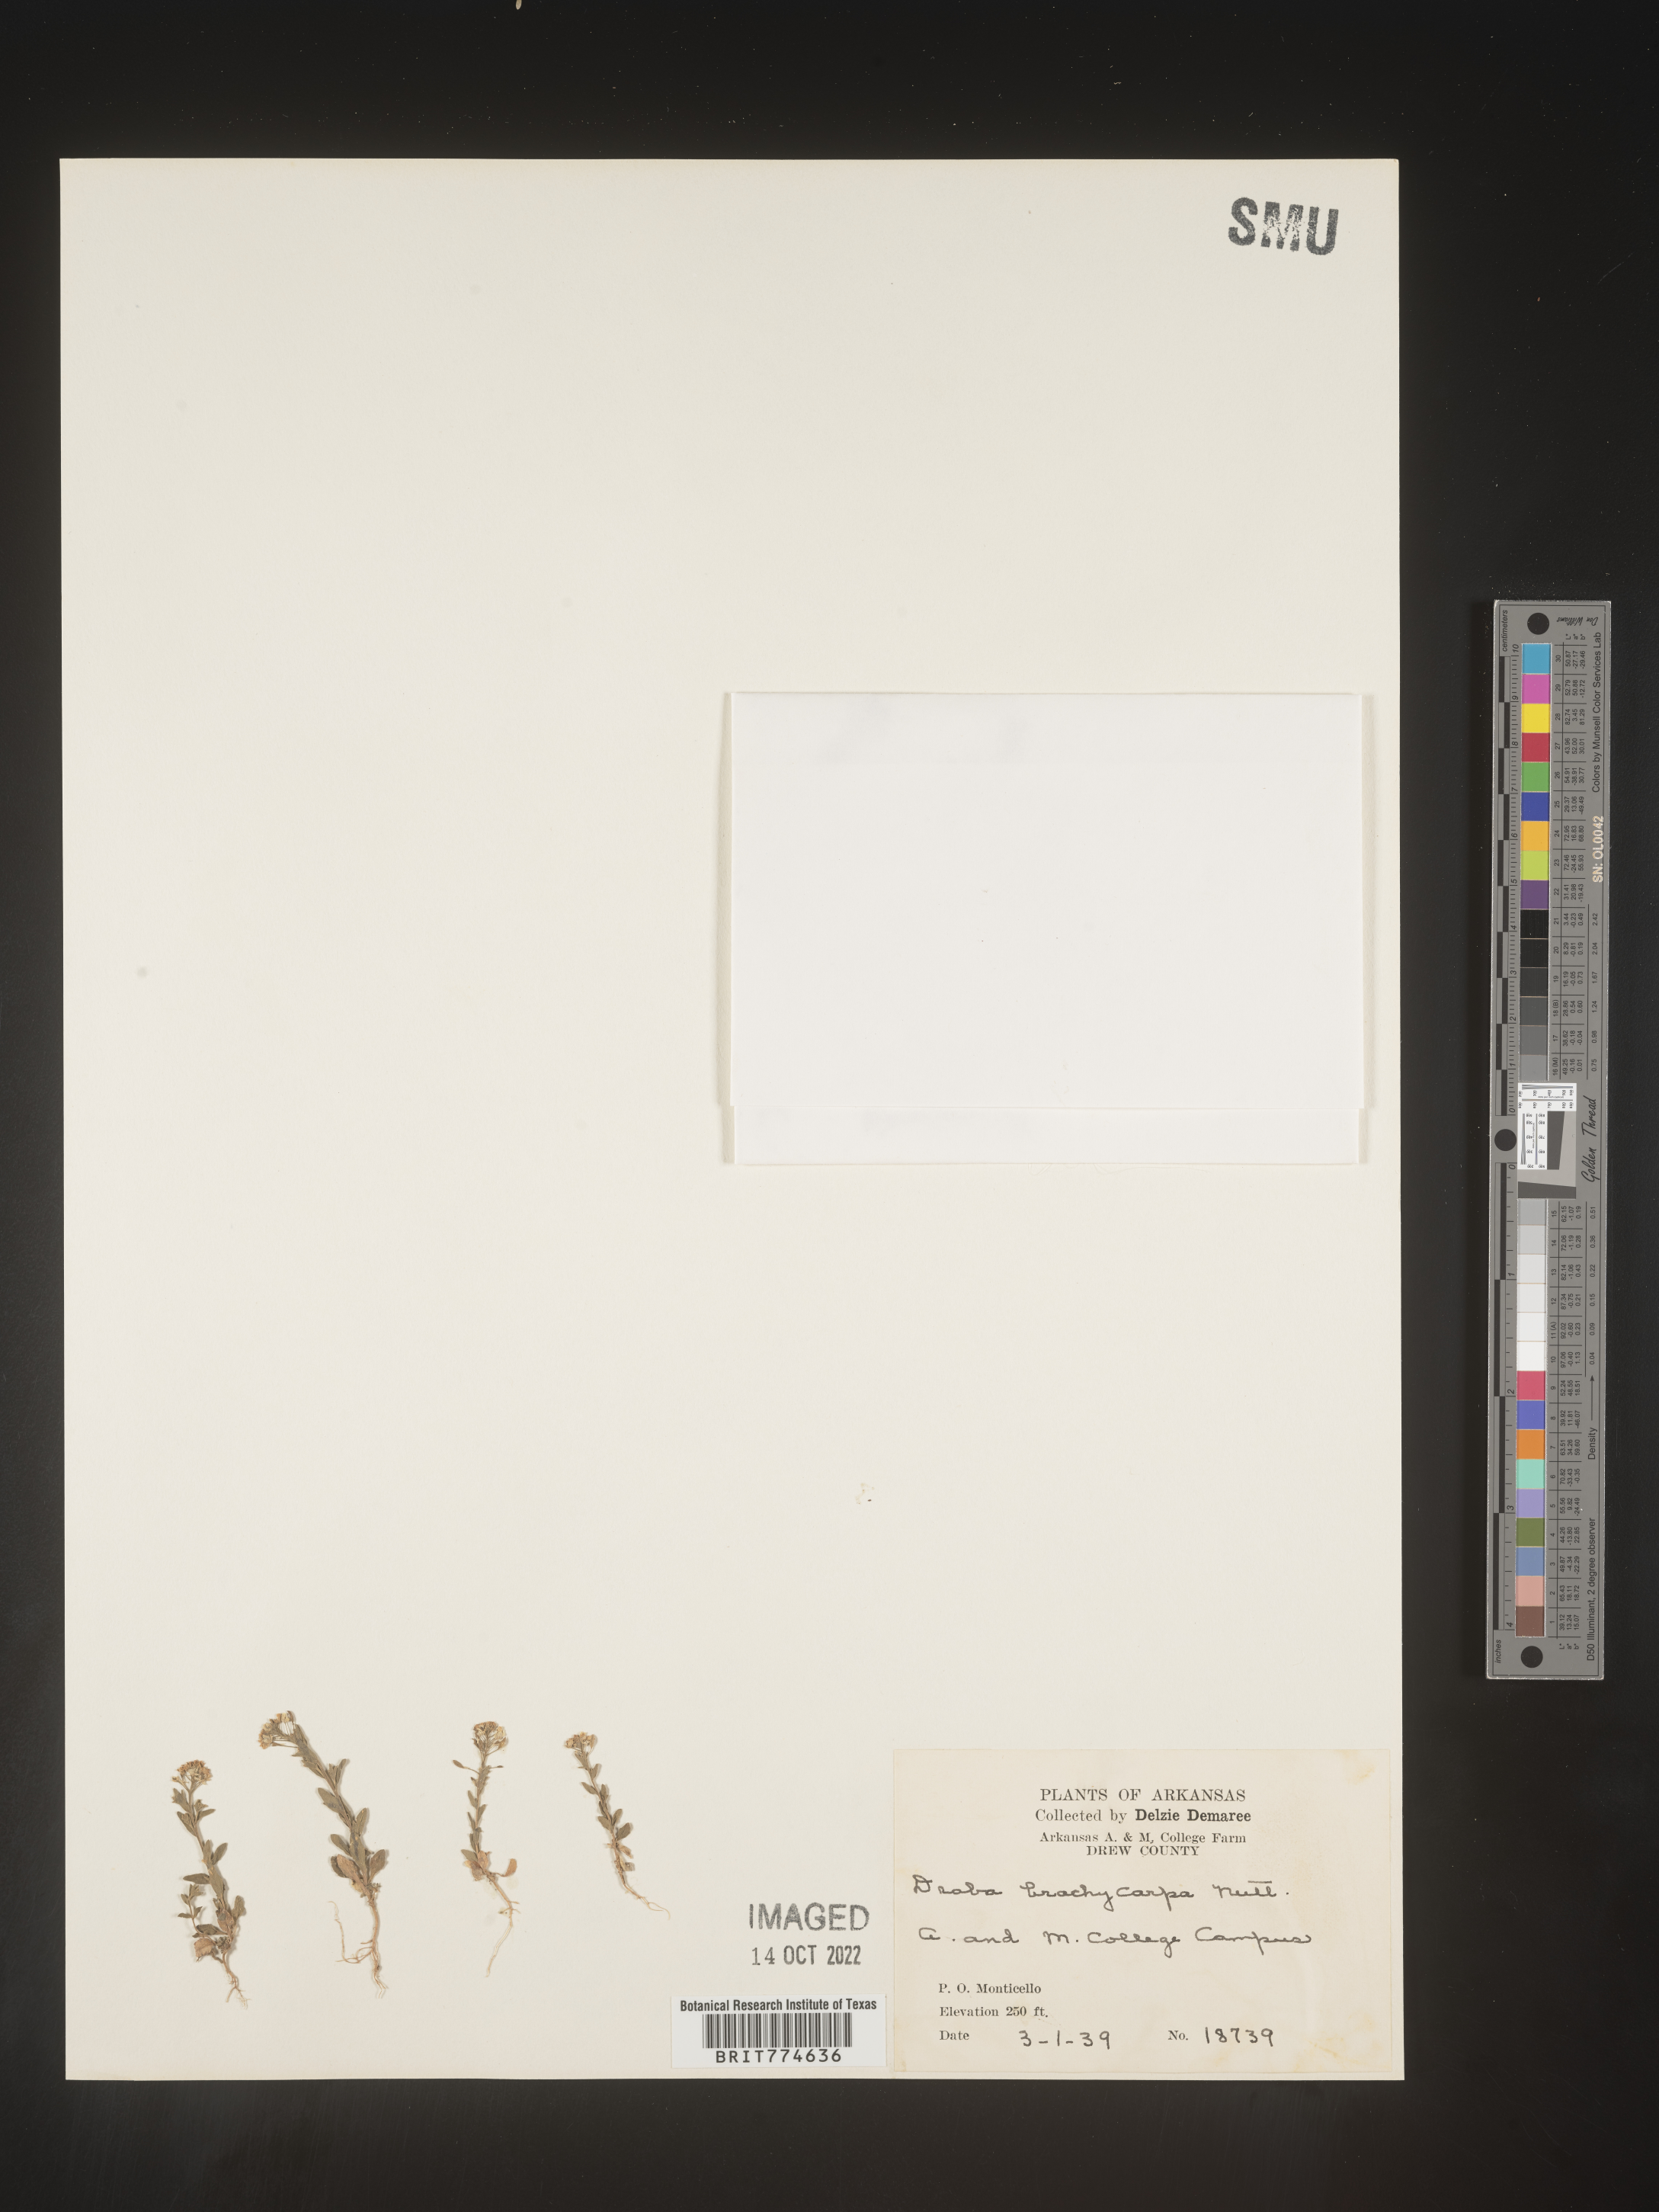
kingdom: Plantae
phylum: Tracheophyta
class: Magnoliopsida
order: Brassicales
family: Brassicaceae
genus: Abdra
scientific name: Abdra brachycarpa
